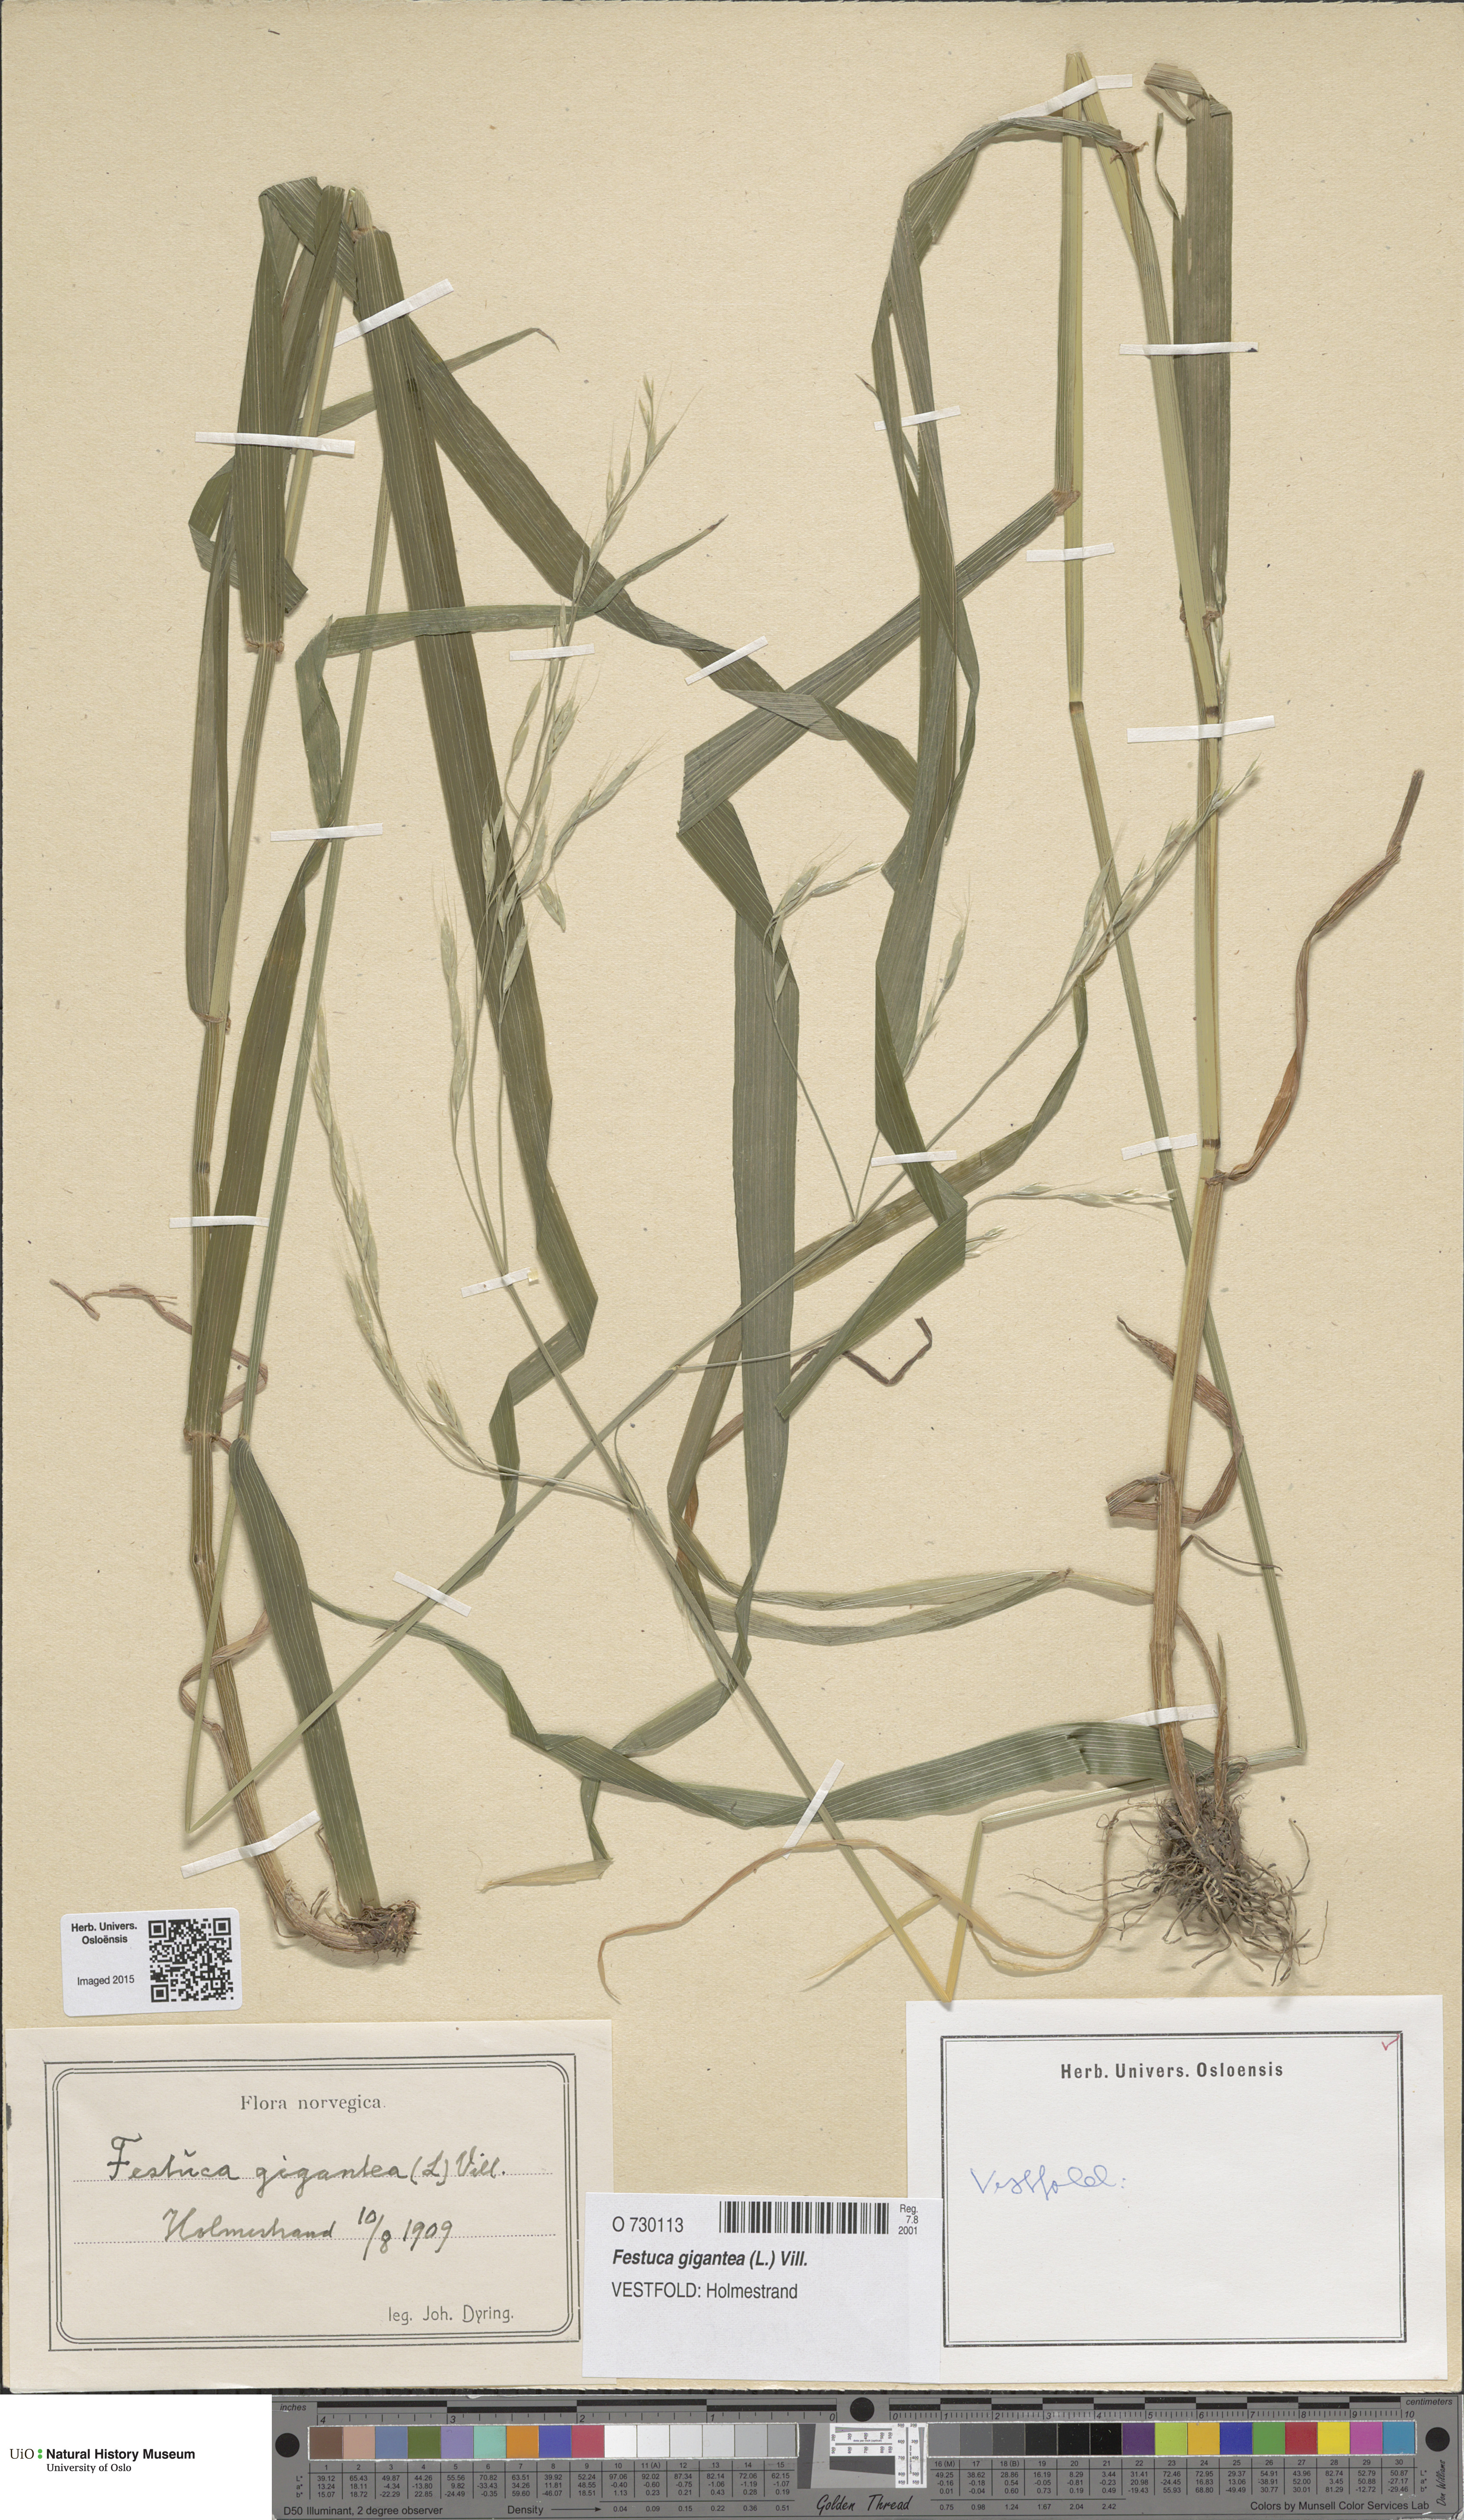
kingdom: Plantae
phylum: Tracheophyta
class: Liliopsida
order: Poales
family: Poaceae
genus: Lolium
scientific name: Lolium giganteum
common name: Giant fescue
